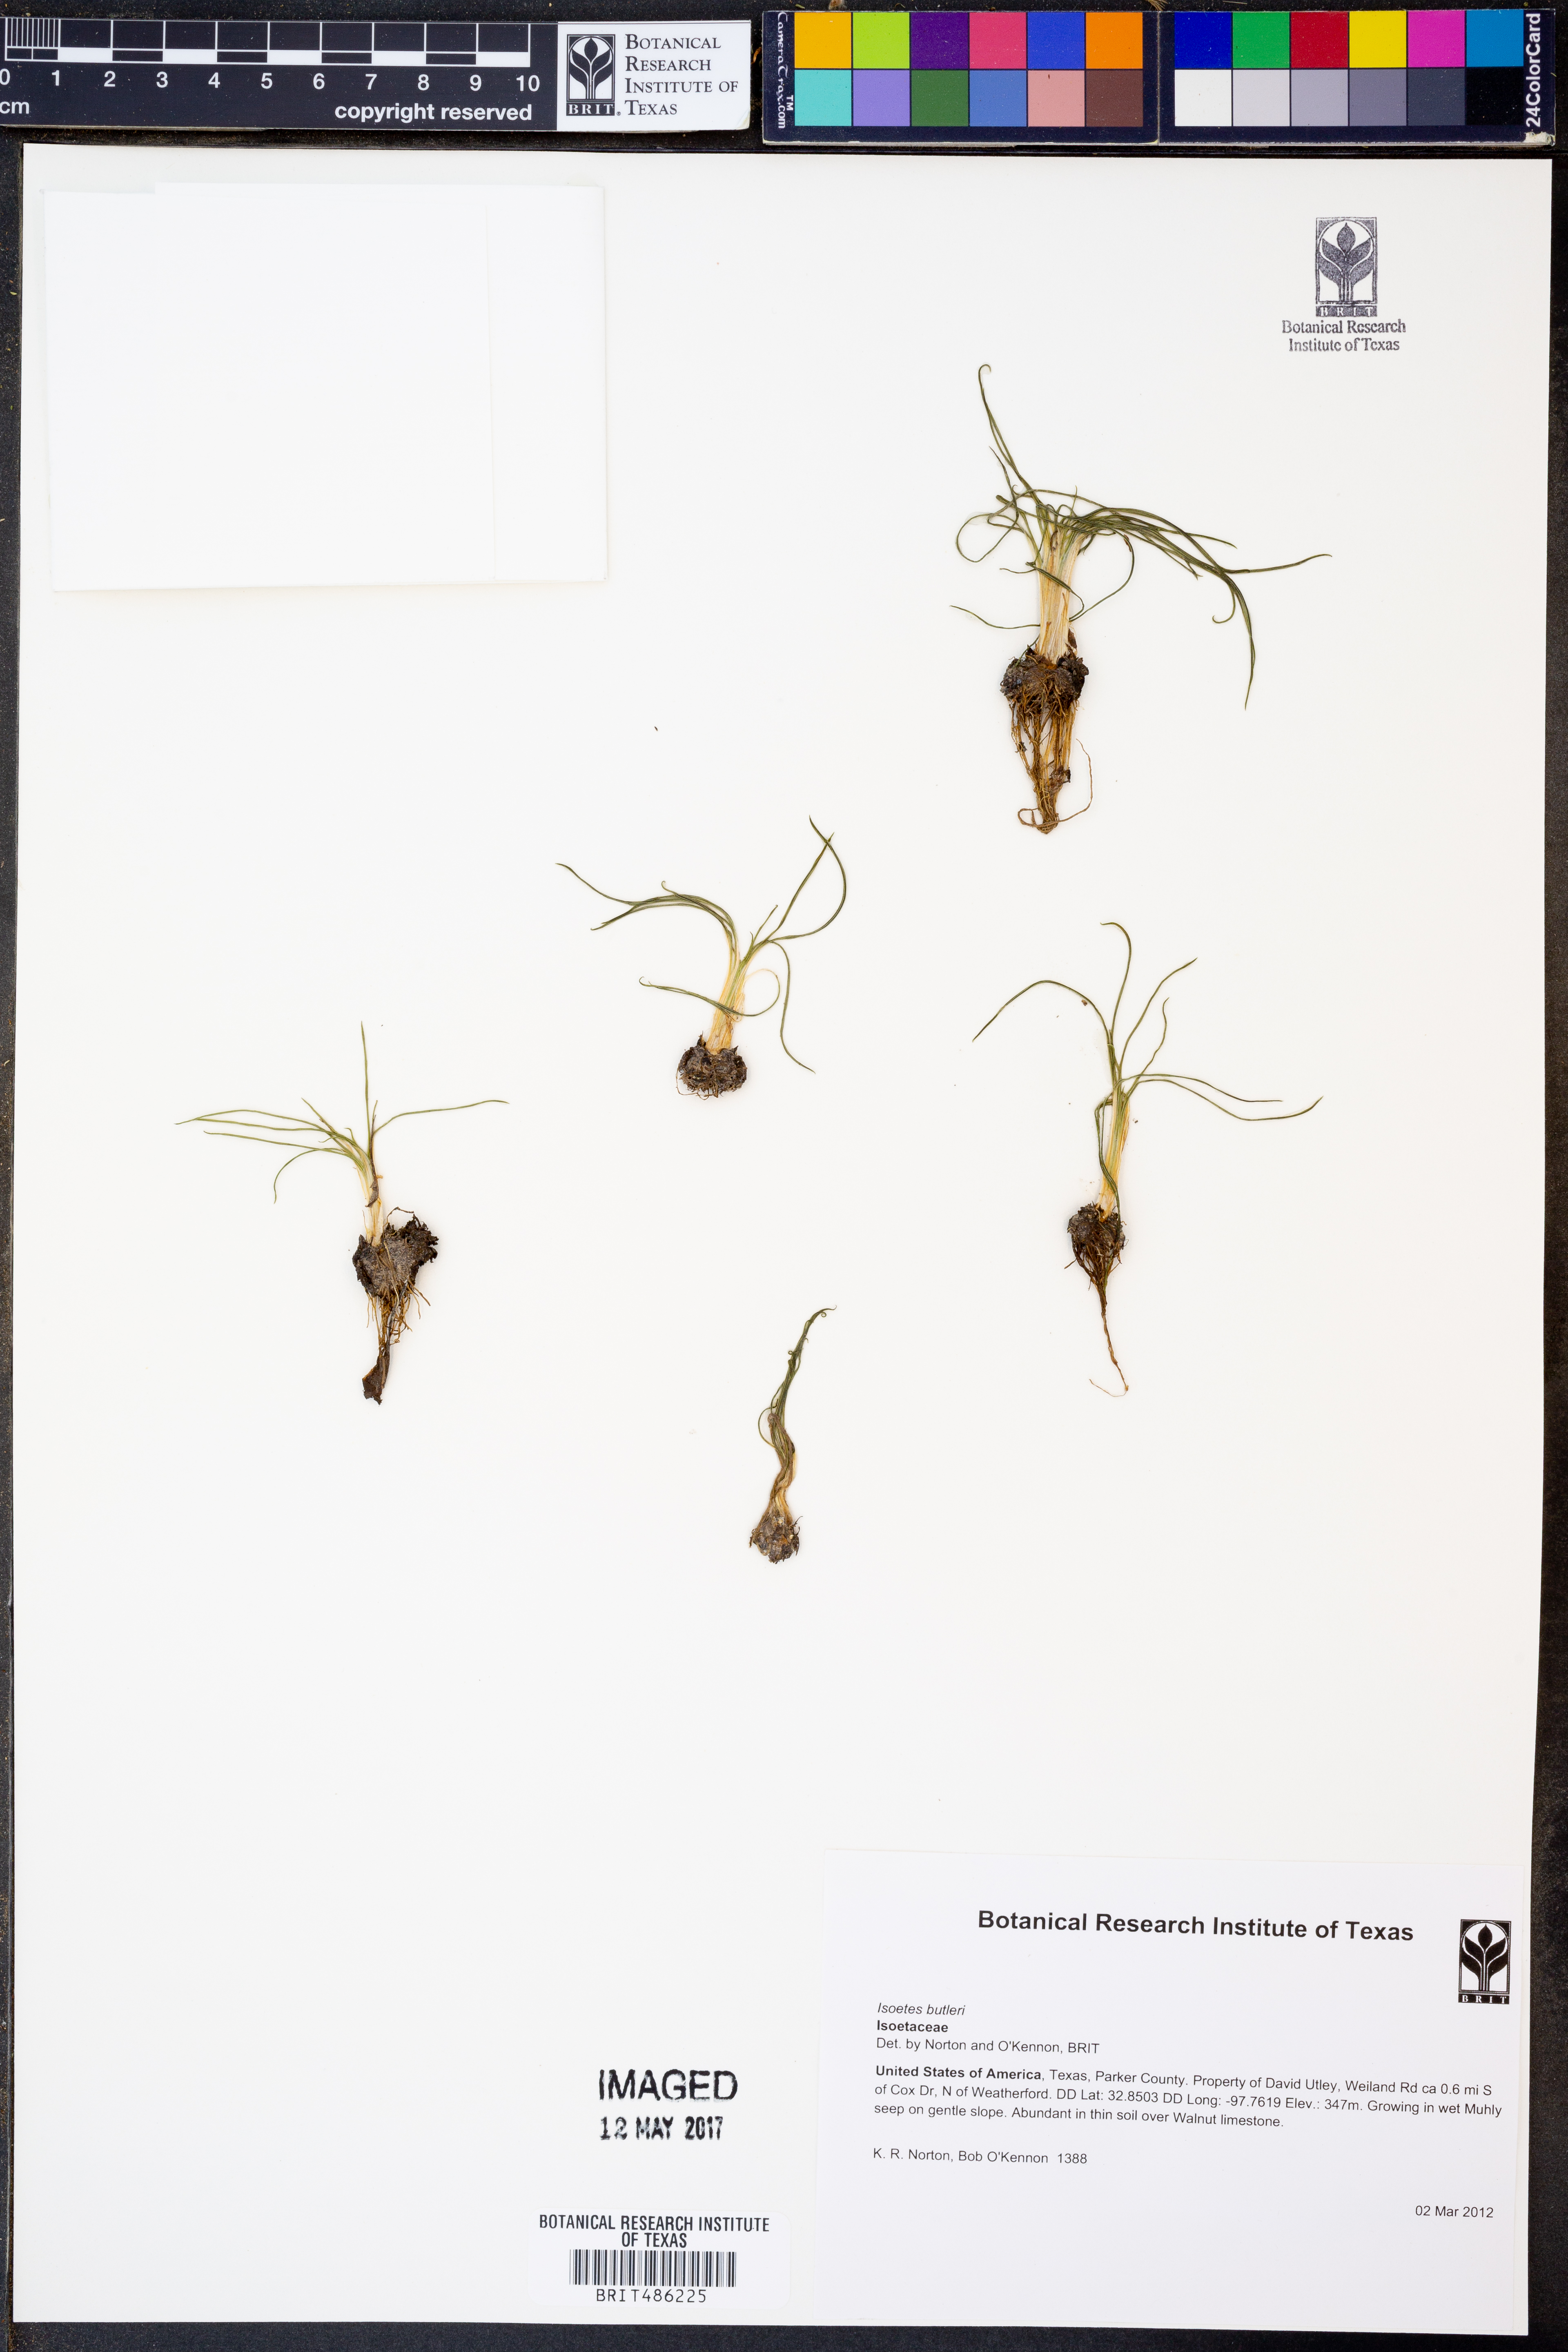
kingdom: Plantae
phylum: Tracheophyta
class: Lycopodiopsida
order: Isoetales
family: Isoetaceae
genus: Isoetes
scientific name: Isoetes butleri
